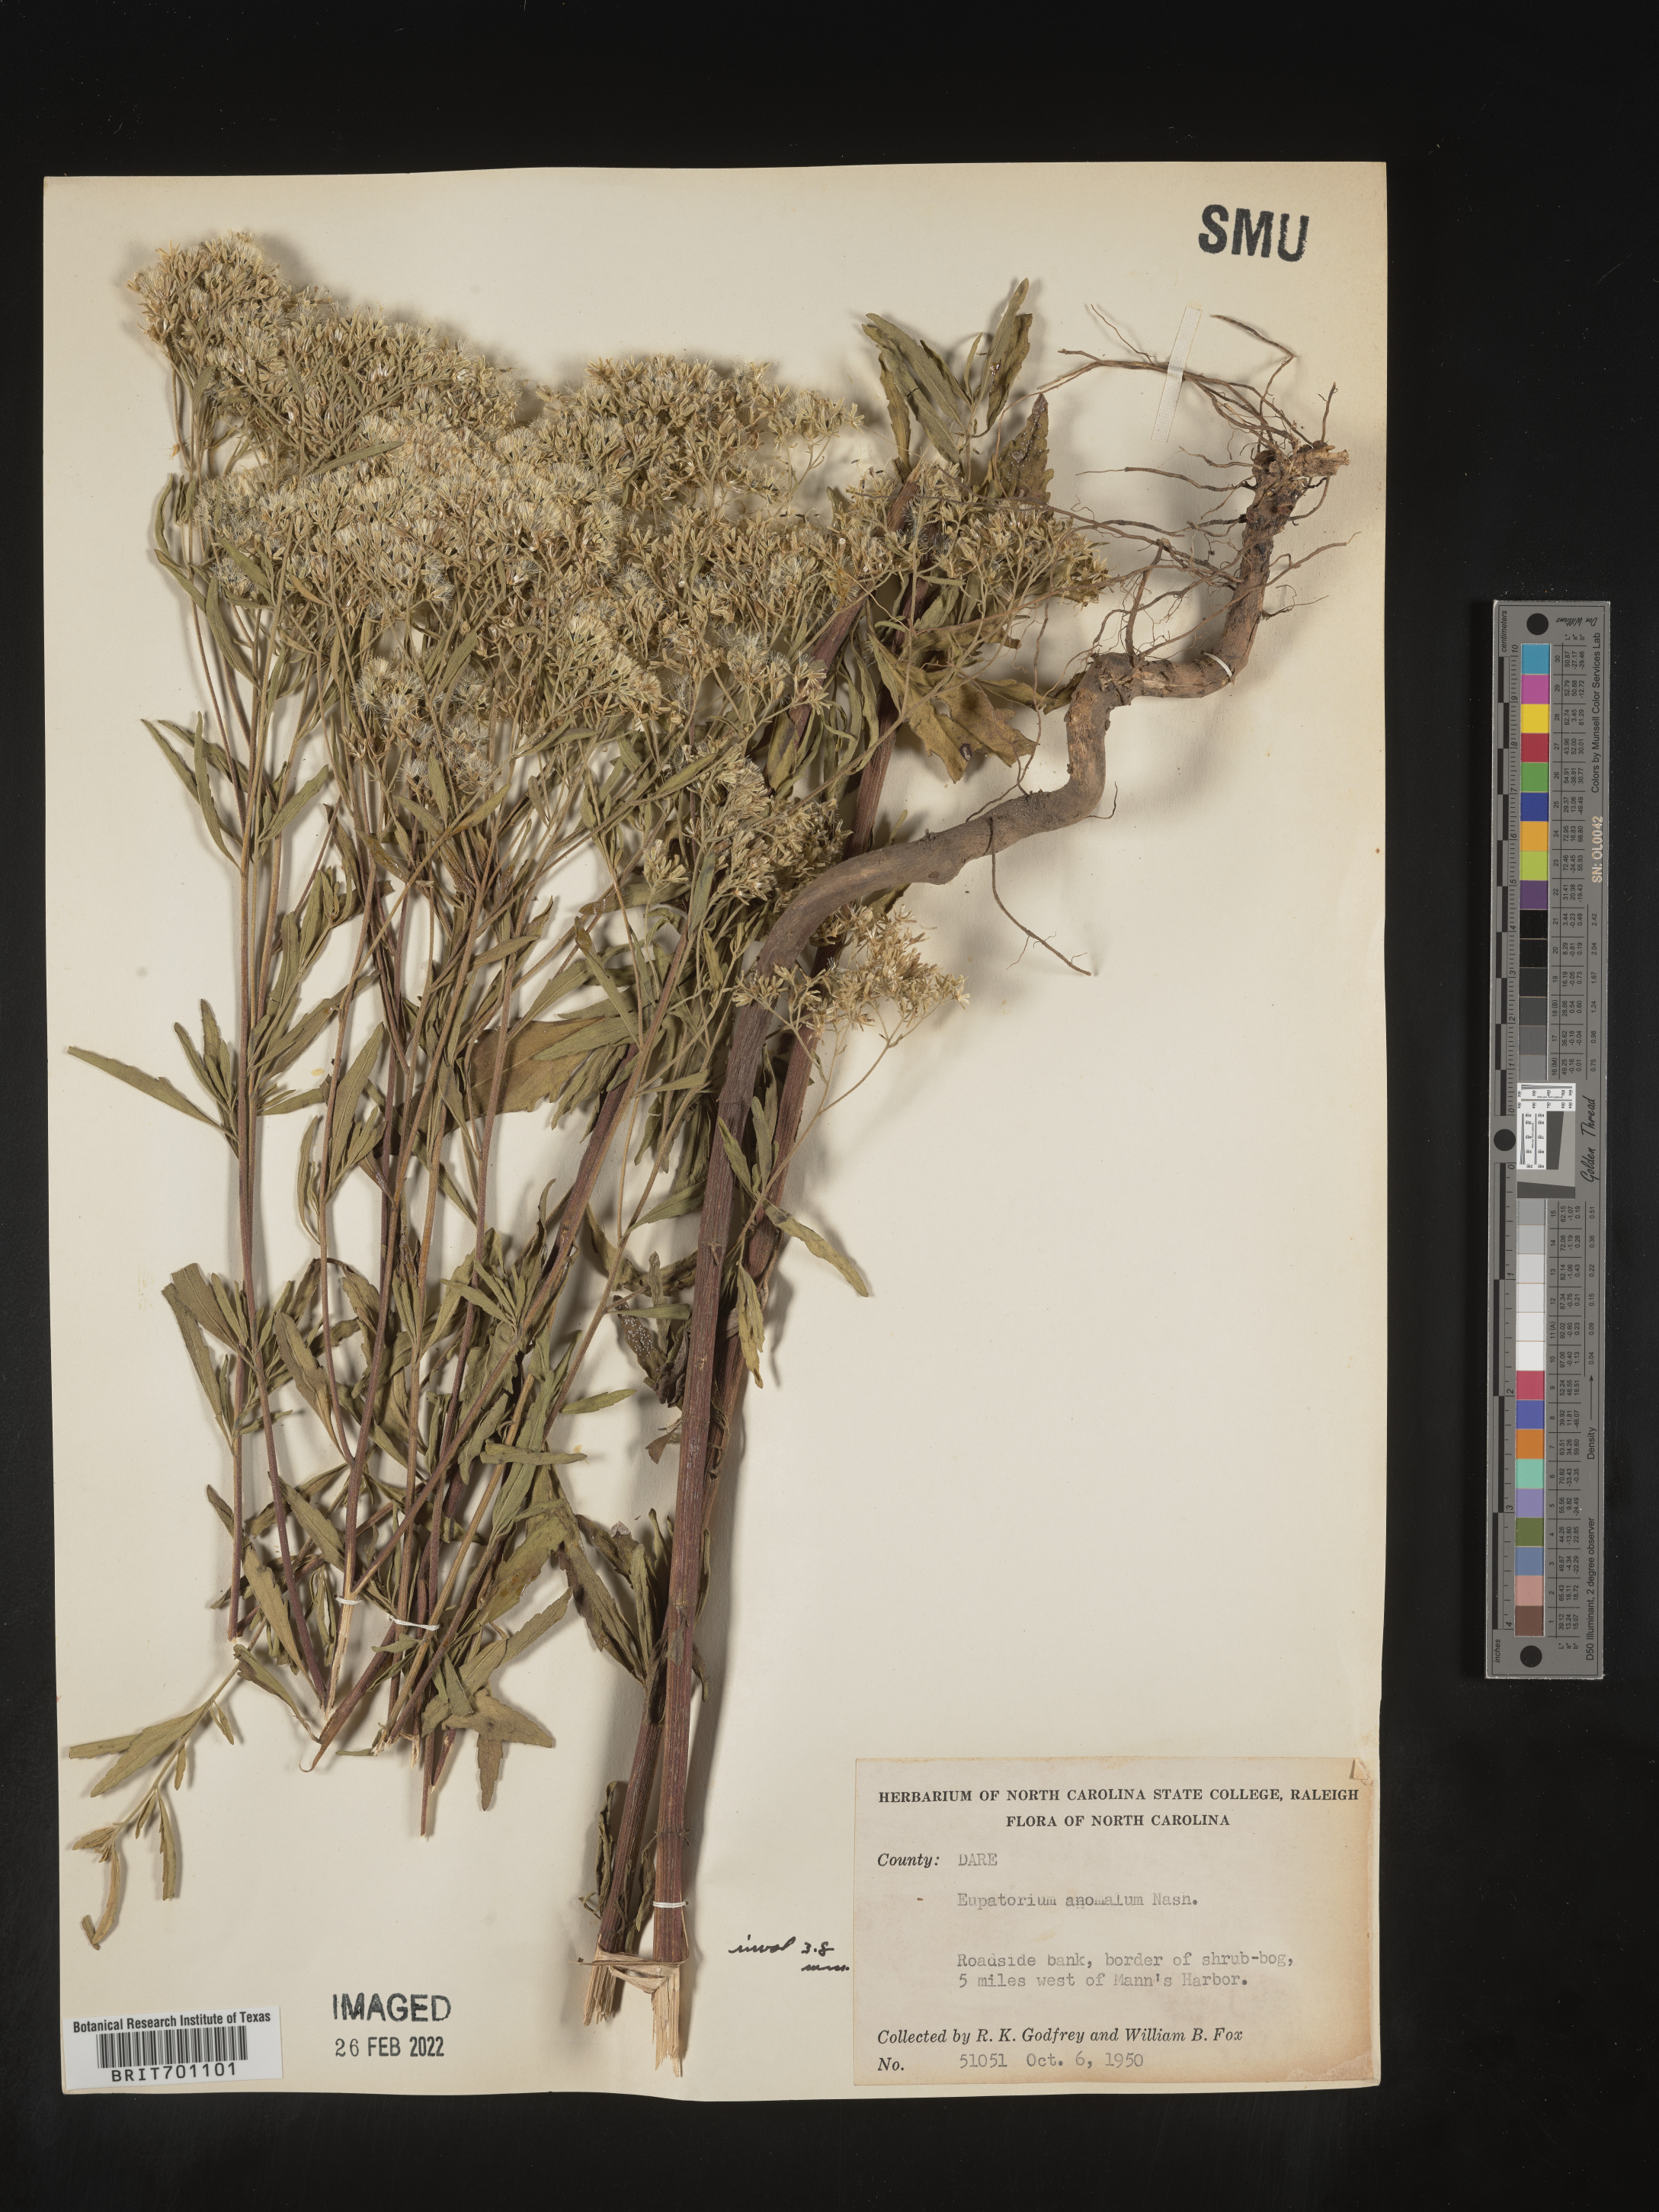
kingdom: Plantae
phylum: Tracheophyta
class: Magnoliopsida
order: Asterales
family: Asteraceae
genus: Eupatorium
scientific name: Eupatorium anomalum
